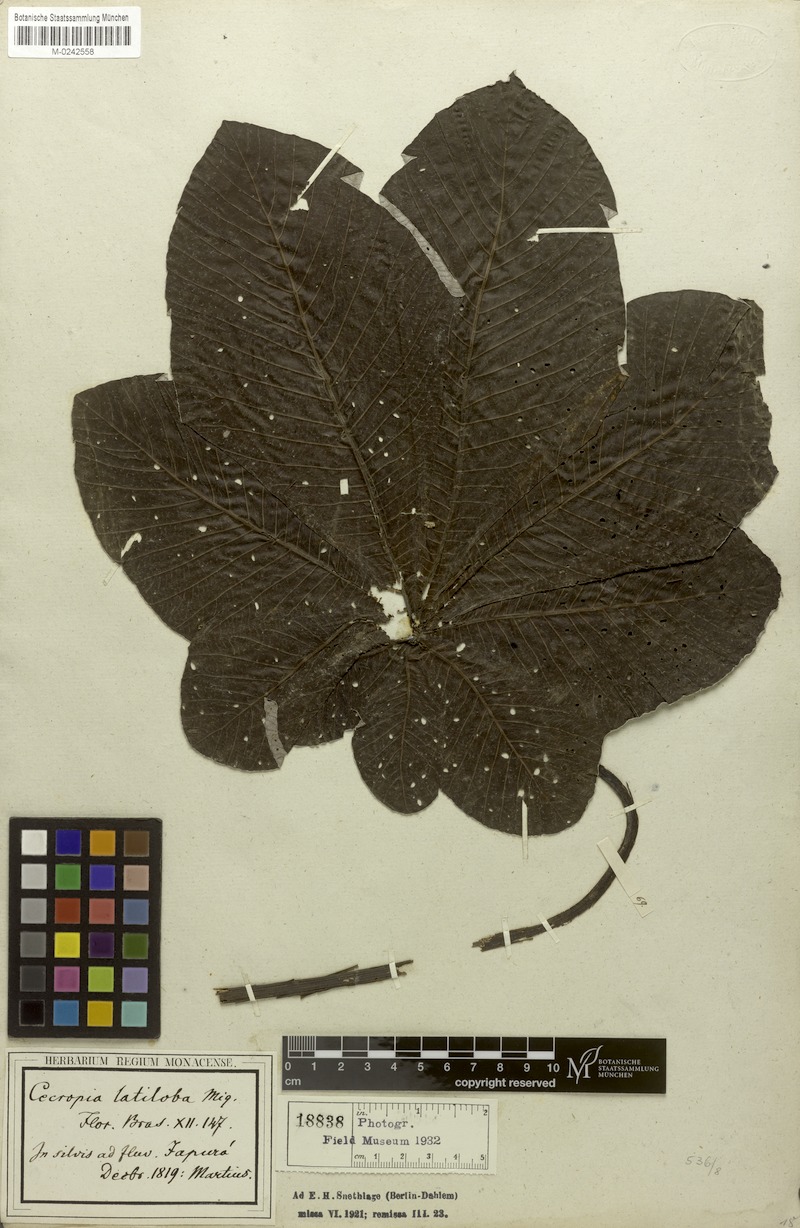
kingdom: Plantae
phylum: Tracheophyta
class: Magnoliopsida
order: Rosales
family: Urticaceae
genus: Cecropia
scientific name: Cecropia latiloba
